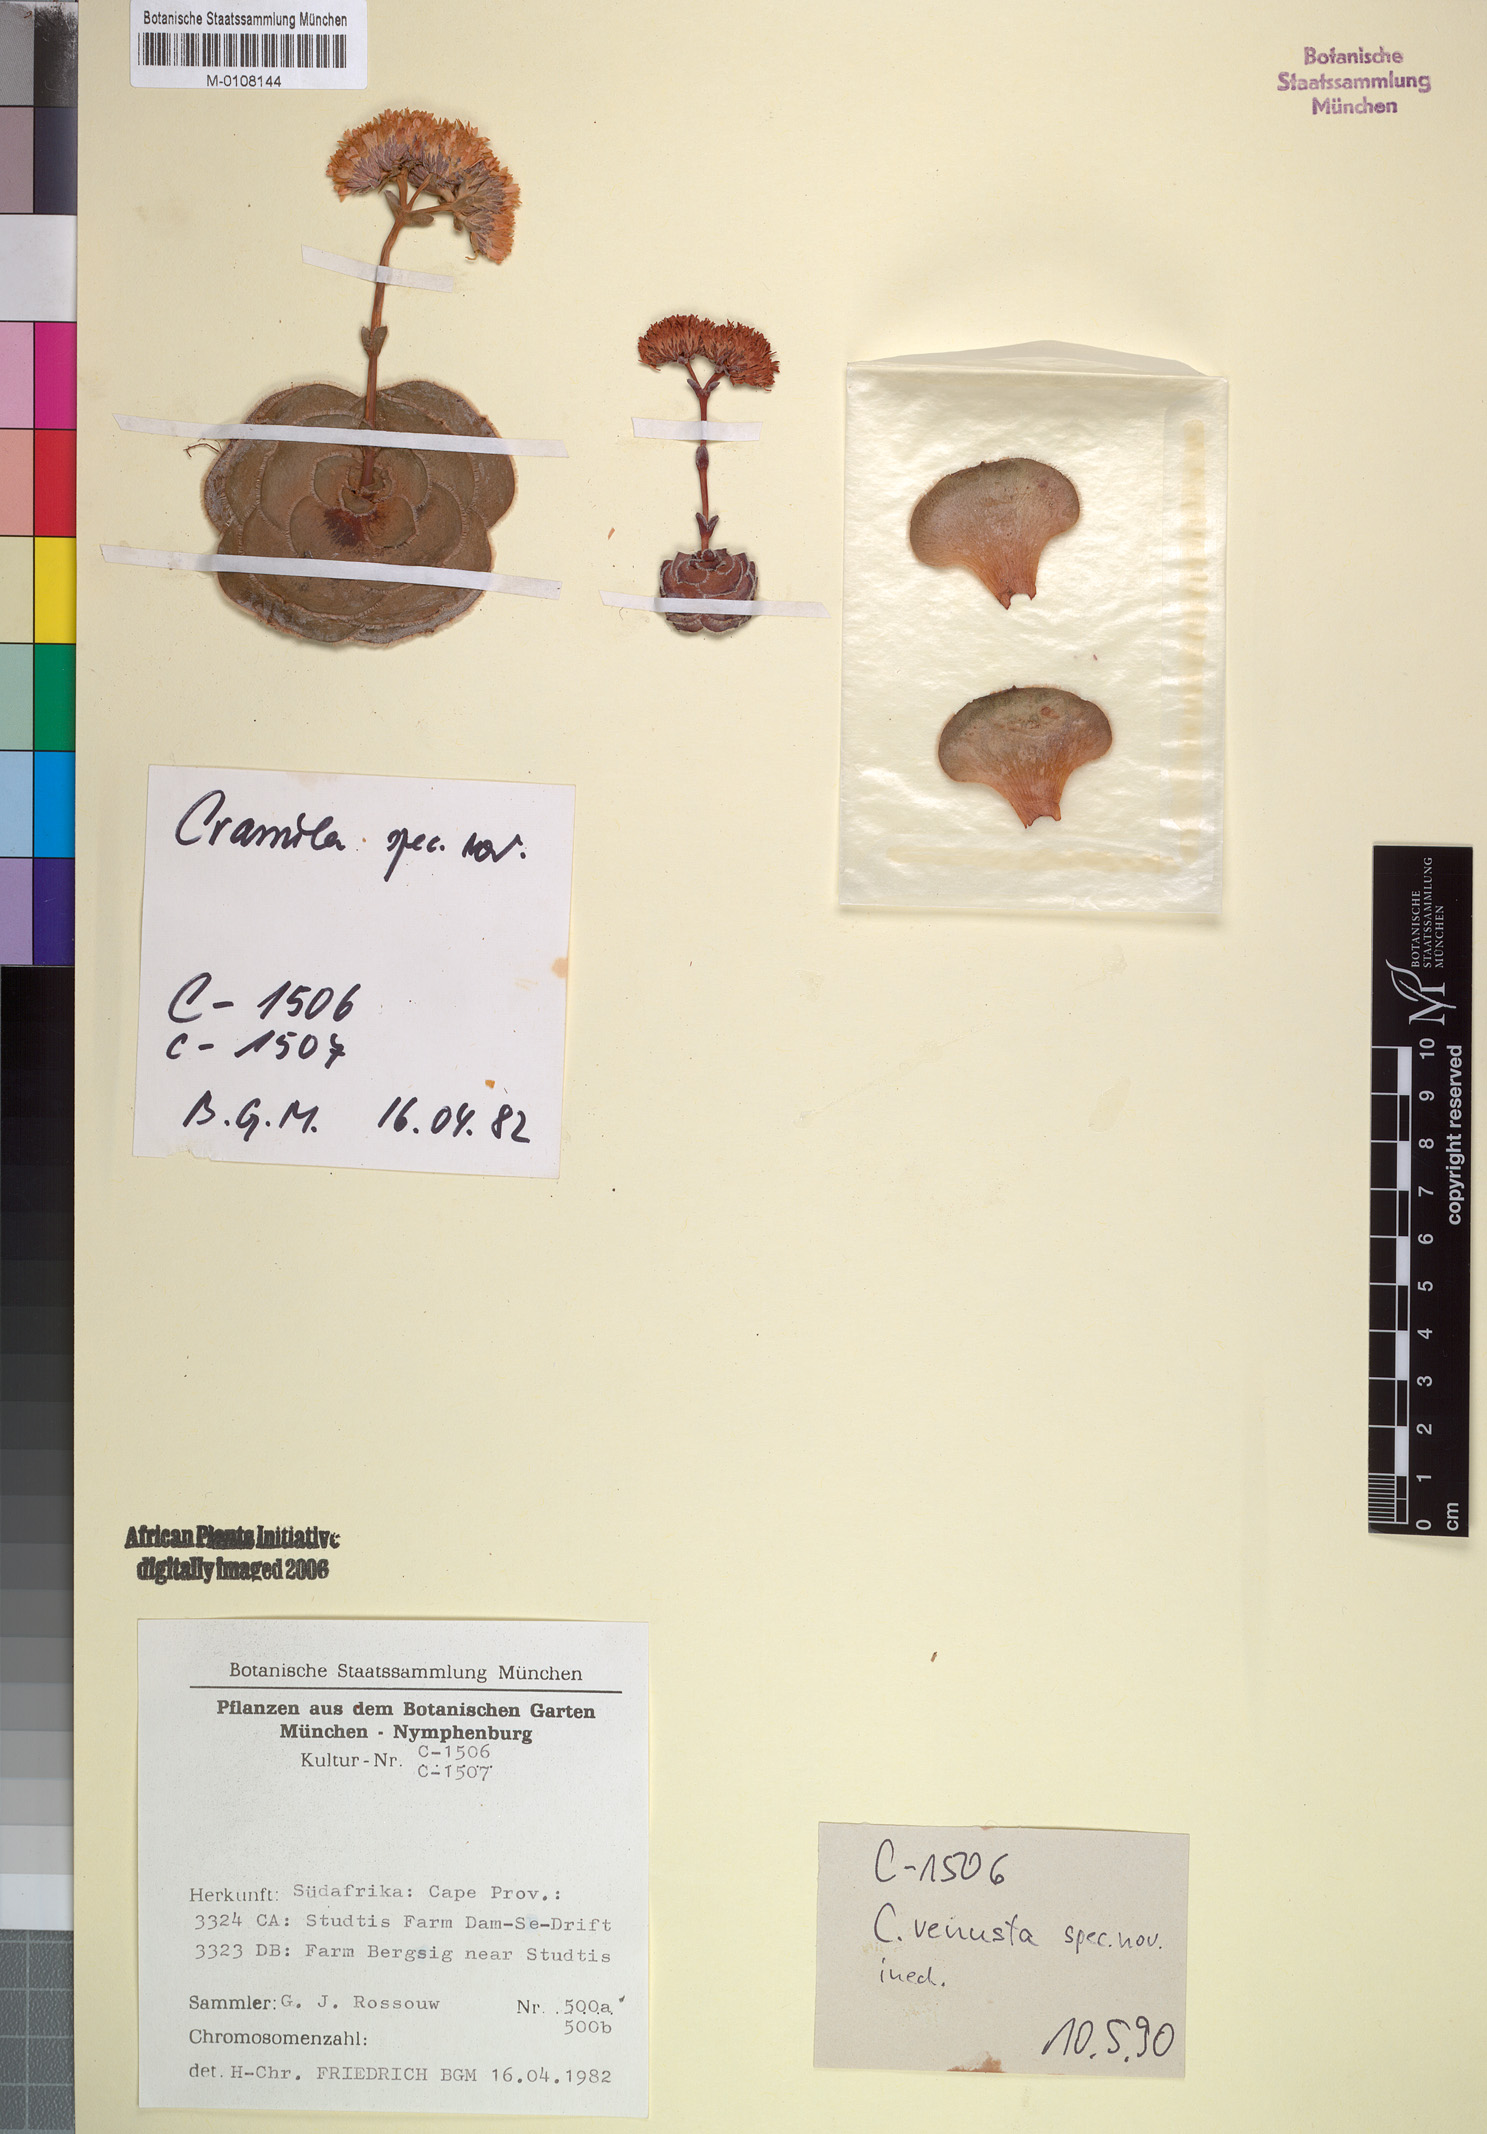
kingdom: Plantae
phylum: Tracheophyta
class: Magnoliopsida
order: Saxifragales
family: Crassulaceae
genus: Crassula
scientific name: Crassula
